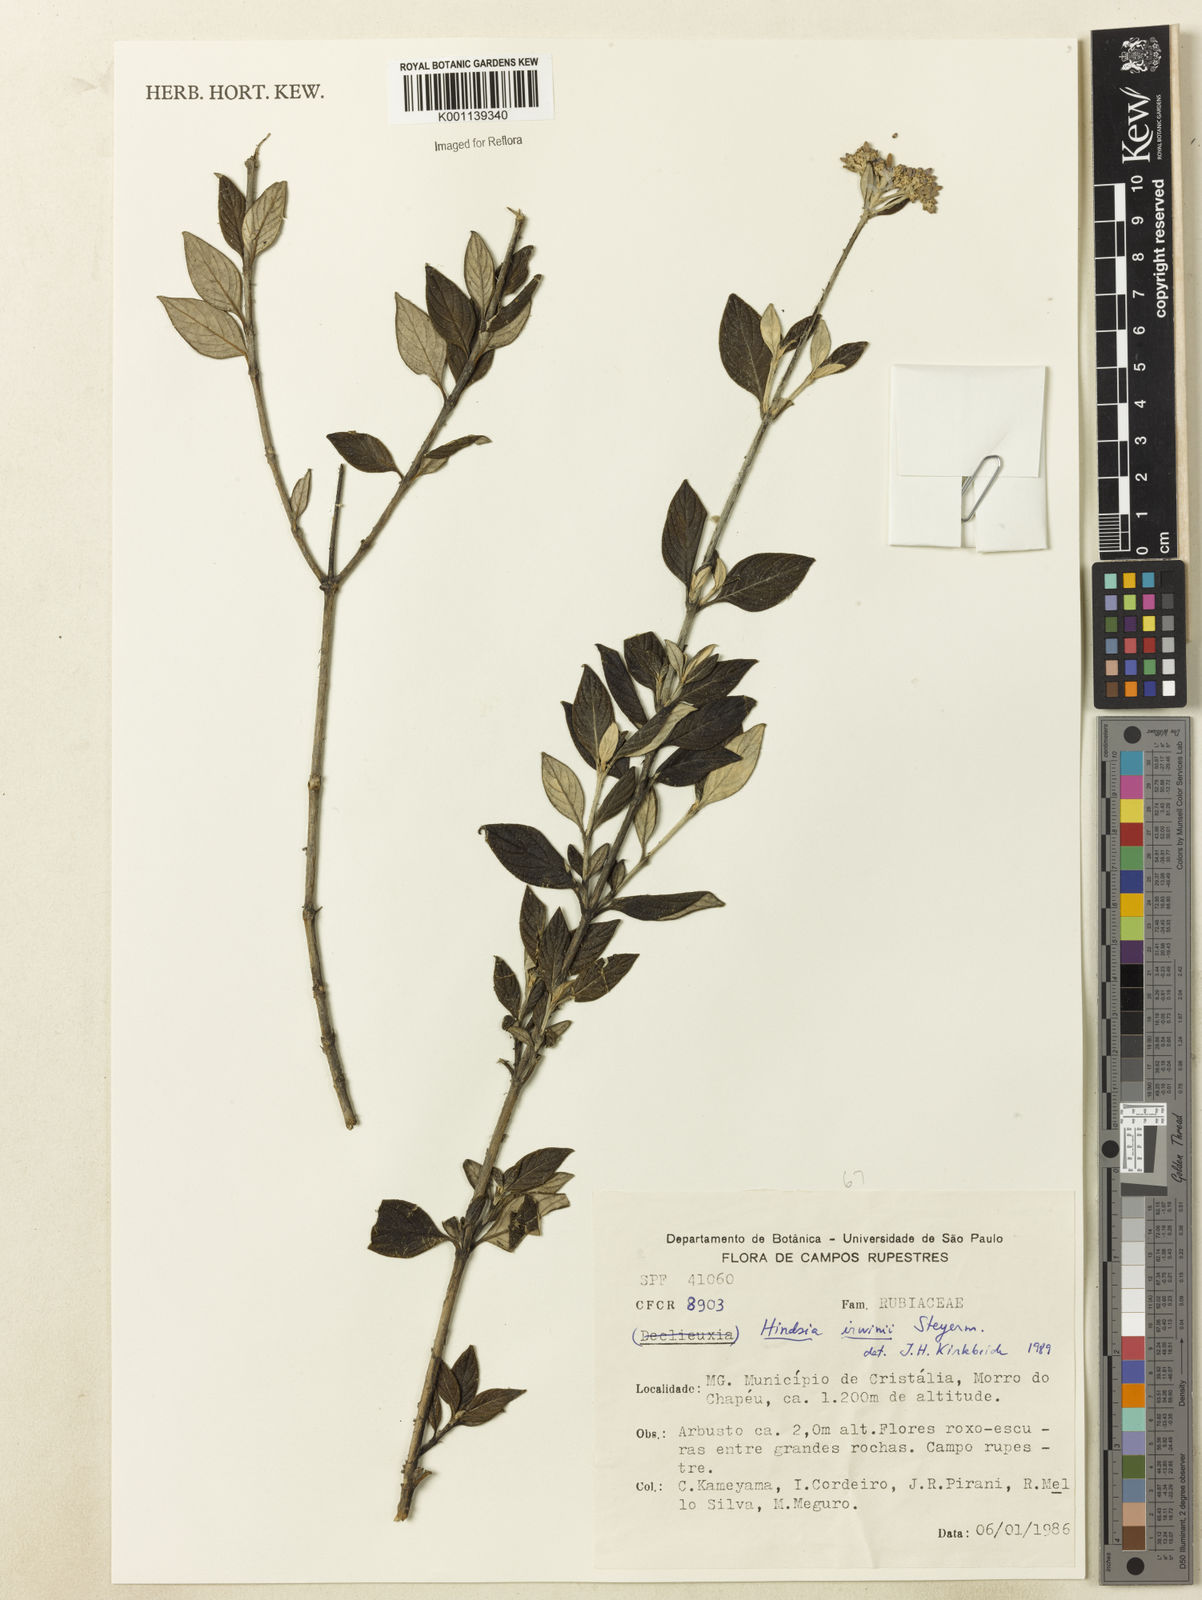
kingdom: Plantae
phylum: Tracheophyta
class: Magnoliopsida
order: Gentianales
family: Rubiaceae
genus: Hindsia
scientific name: Hindsia irwinii
